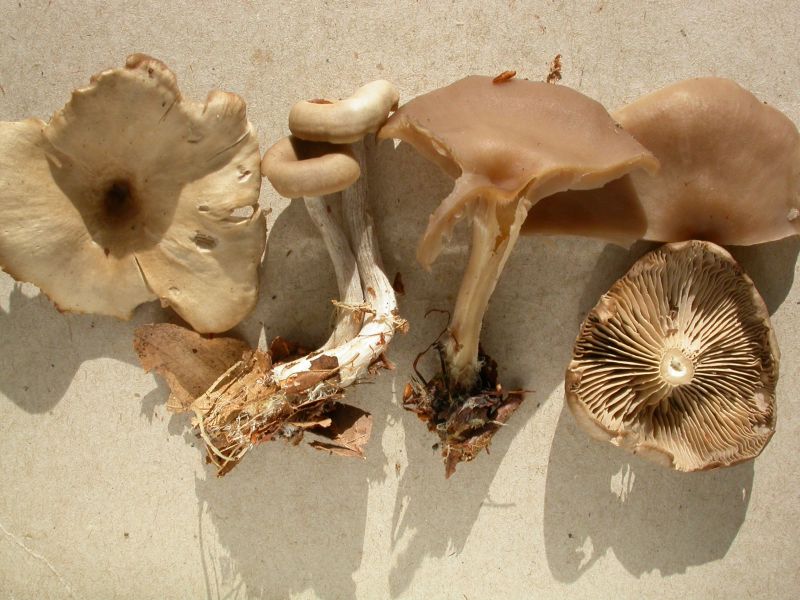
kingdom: Fungi
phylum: Basidiomycota
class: Agaricomycetes
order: Agaricales
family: Lyophyllaceae
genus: Clitolyophyllum
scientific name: Clitolyophyllum akcaabatense
